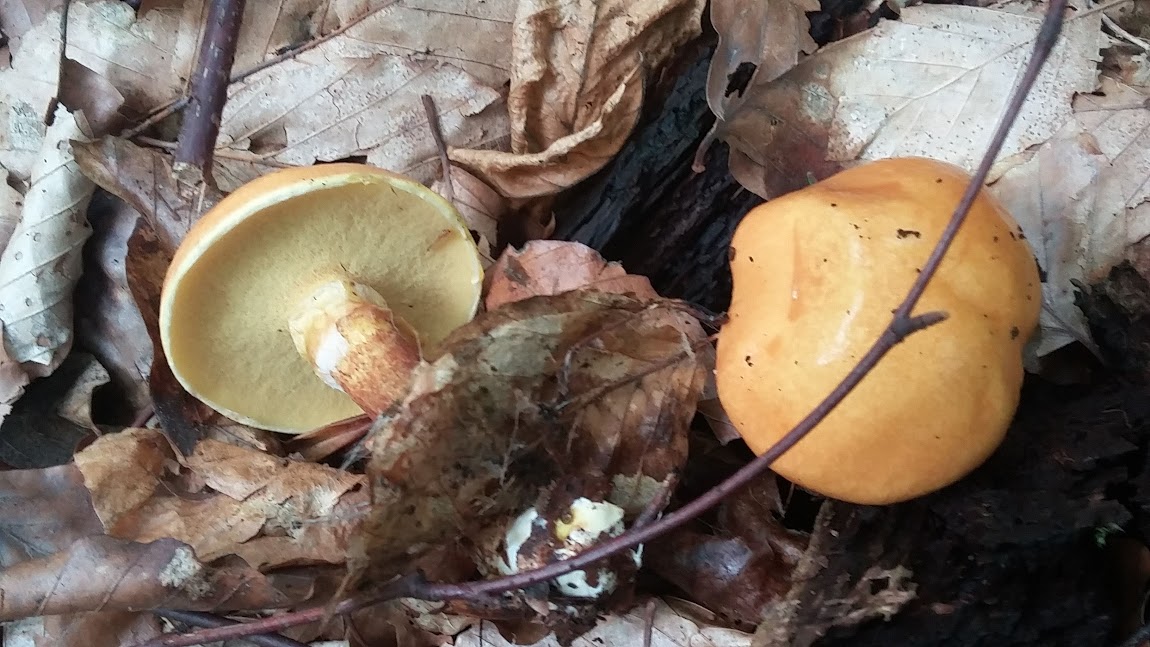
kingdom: Fungi
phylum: Basidiomycota
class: Agaricomycetes
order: Boletales
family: Suillaceae
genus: Suillus
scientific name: Suillus grevillei
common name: lærke-slimrørhat
